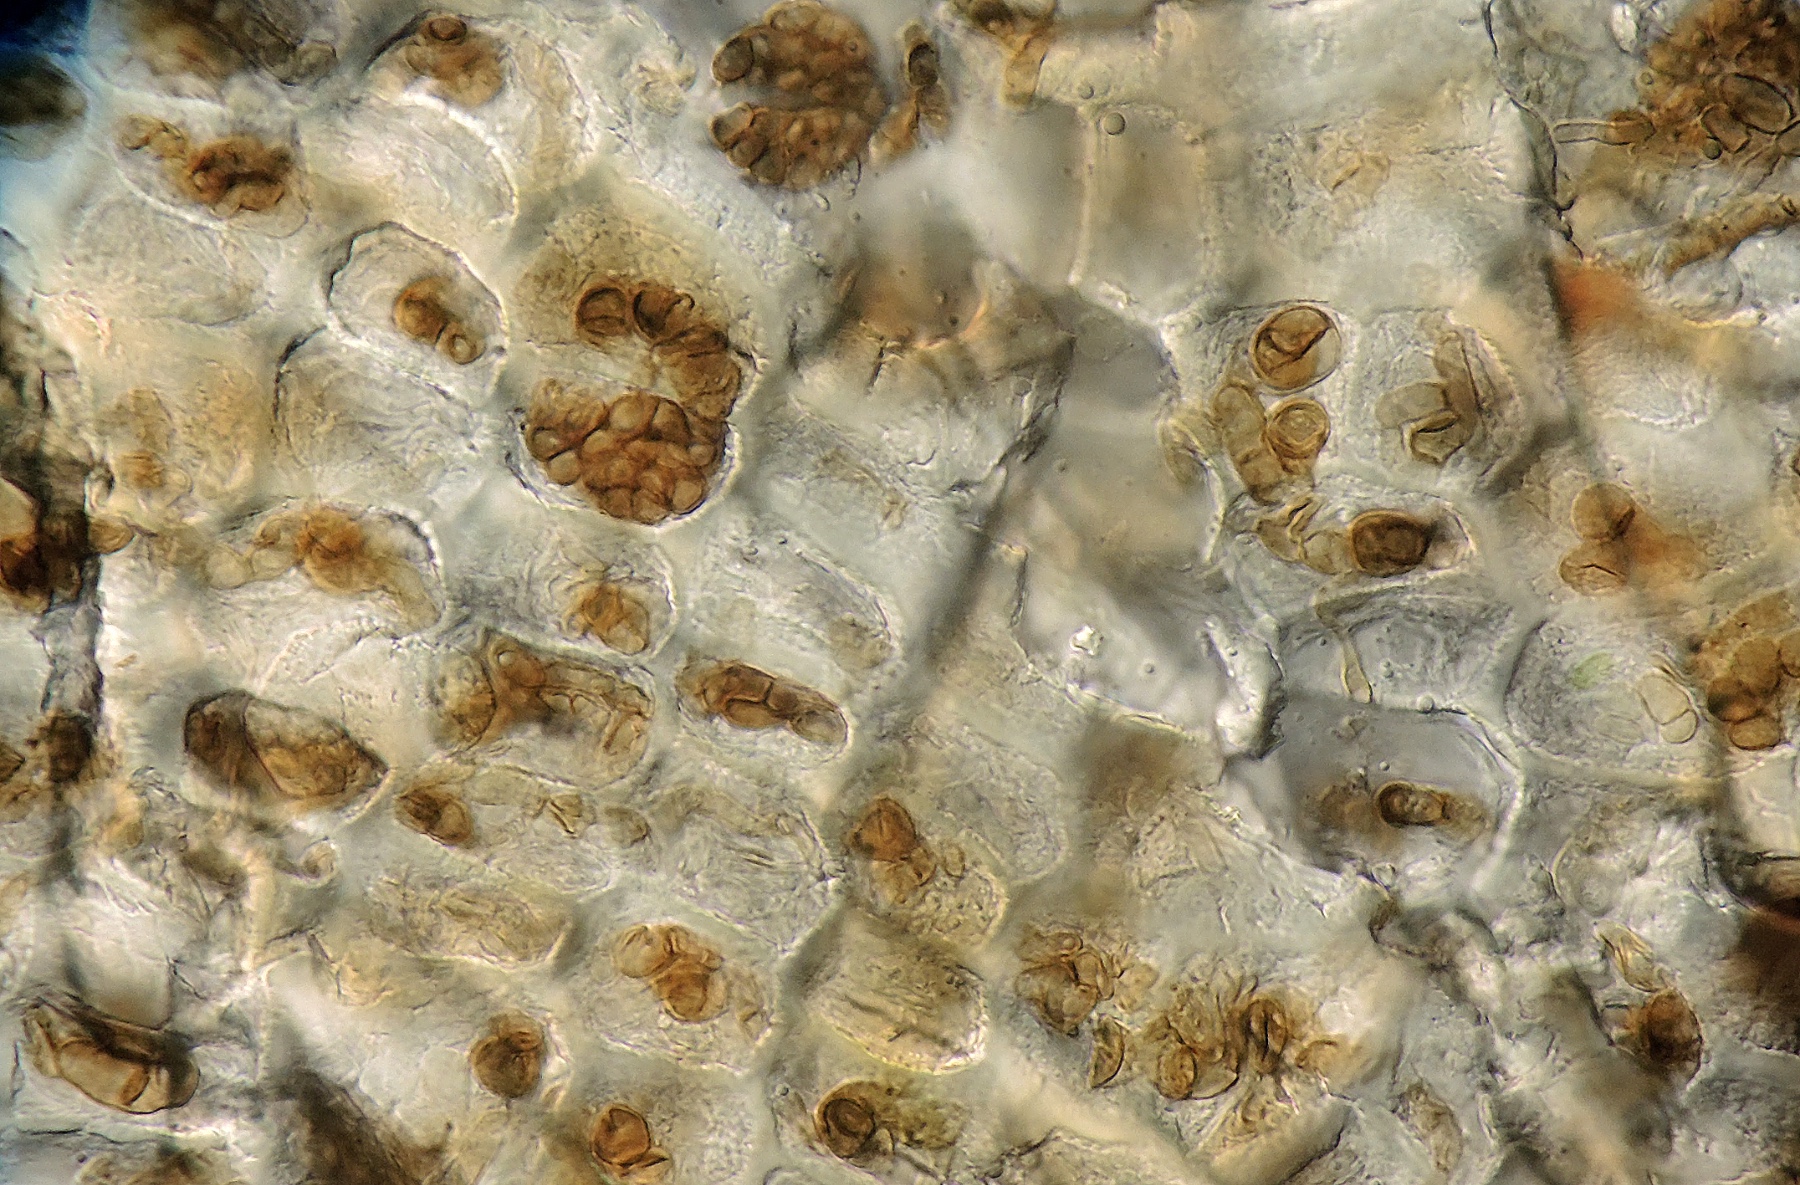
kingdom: Fungi
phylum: Ascomycota
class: Dothideomycetes
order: Dothideales
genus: Monodictys
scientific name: Monodictys putredinis
